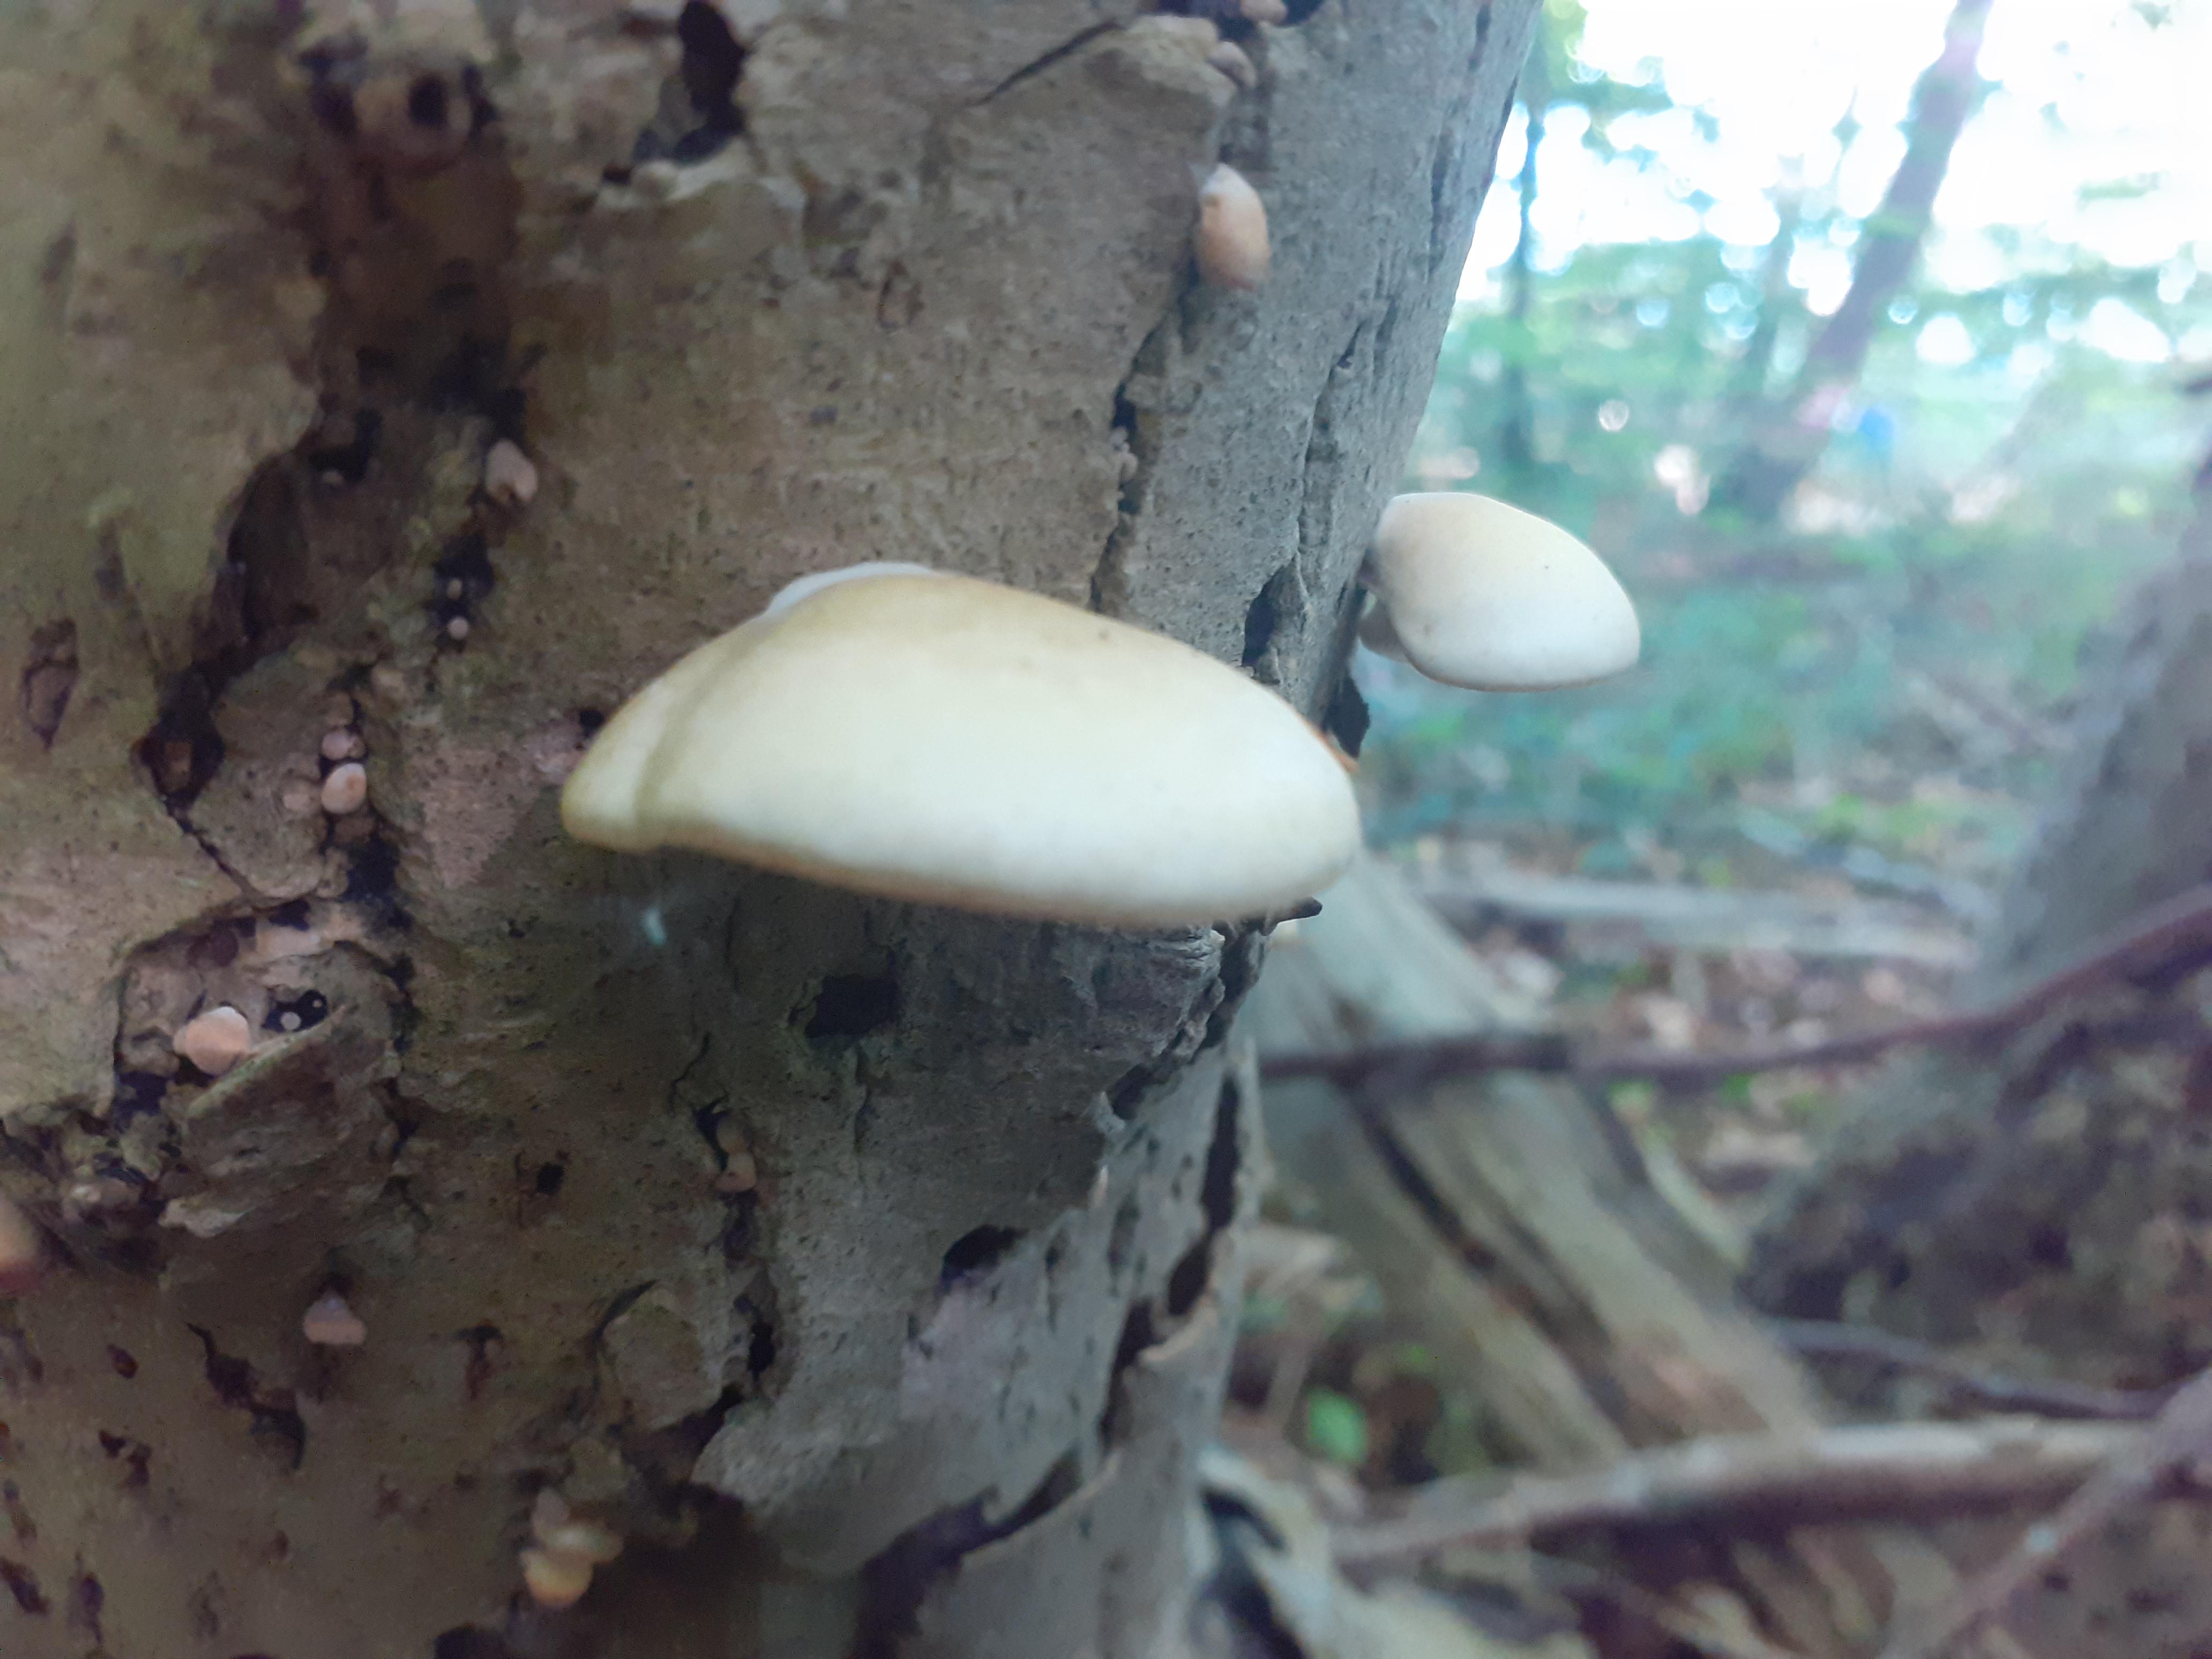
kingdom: Fungi
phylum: Basidiomycota
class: Agaricomycetes
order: Agaricales
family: Crepidotaceae
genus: Crepidotus
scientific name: Crepidotus mollis
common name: blød muslingesvamp
